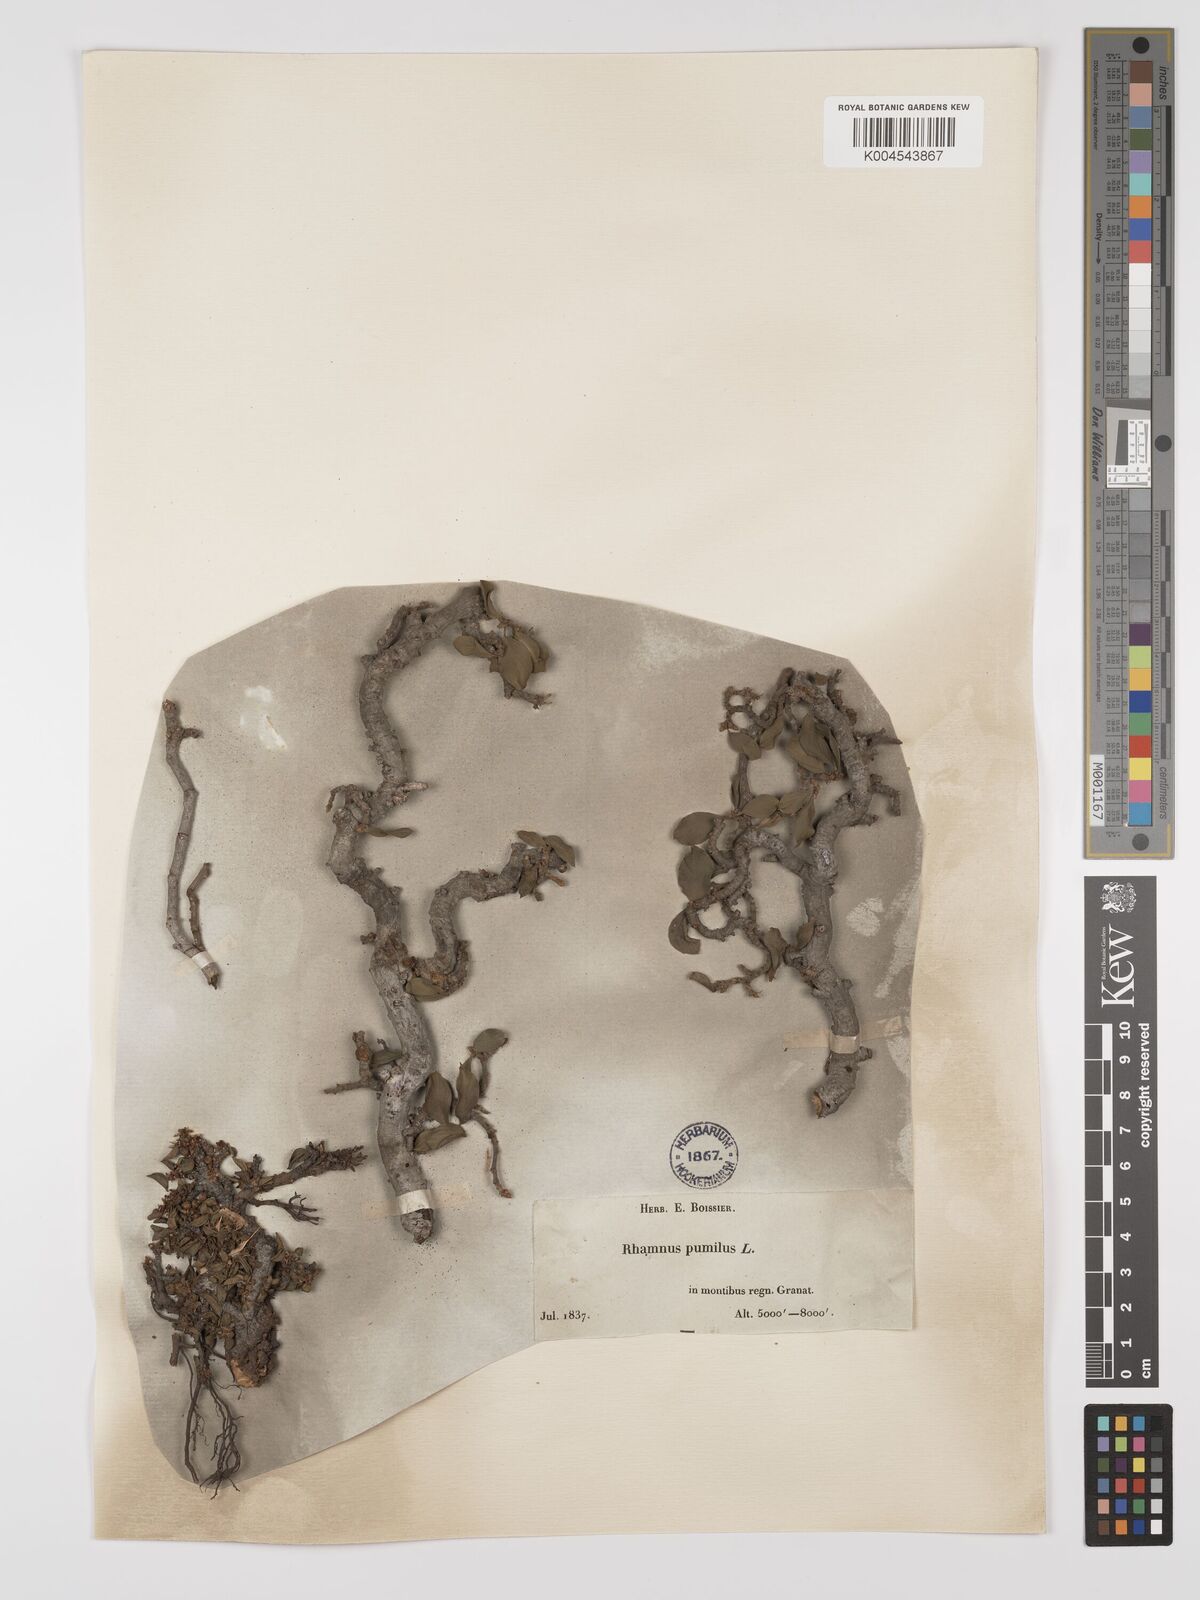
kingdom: Plantae
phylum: Tracheophyta
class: Magnoliopsida
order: Rosales
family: Rhamnaceae
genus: Rhamnus
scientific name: Rhamnus
